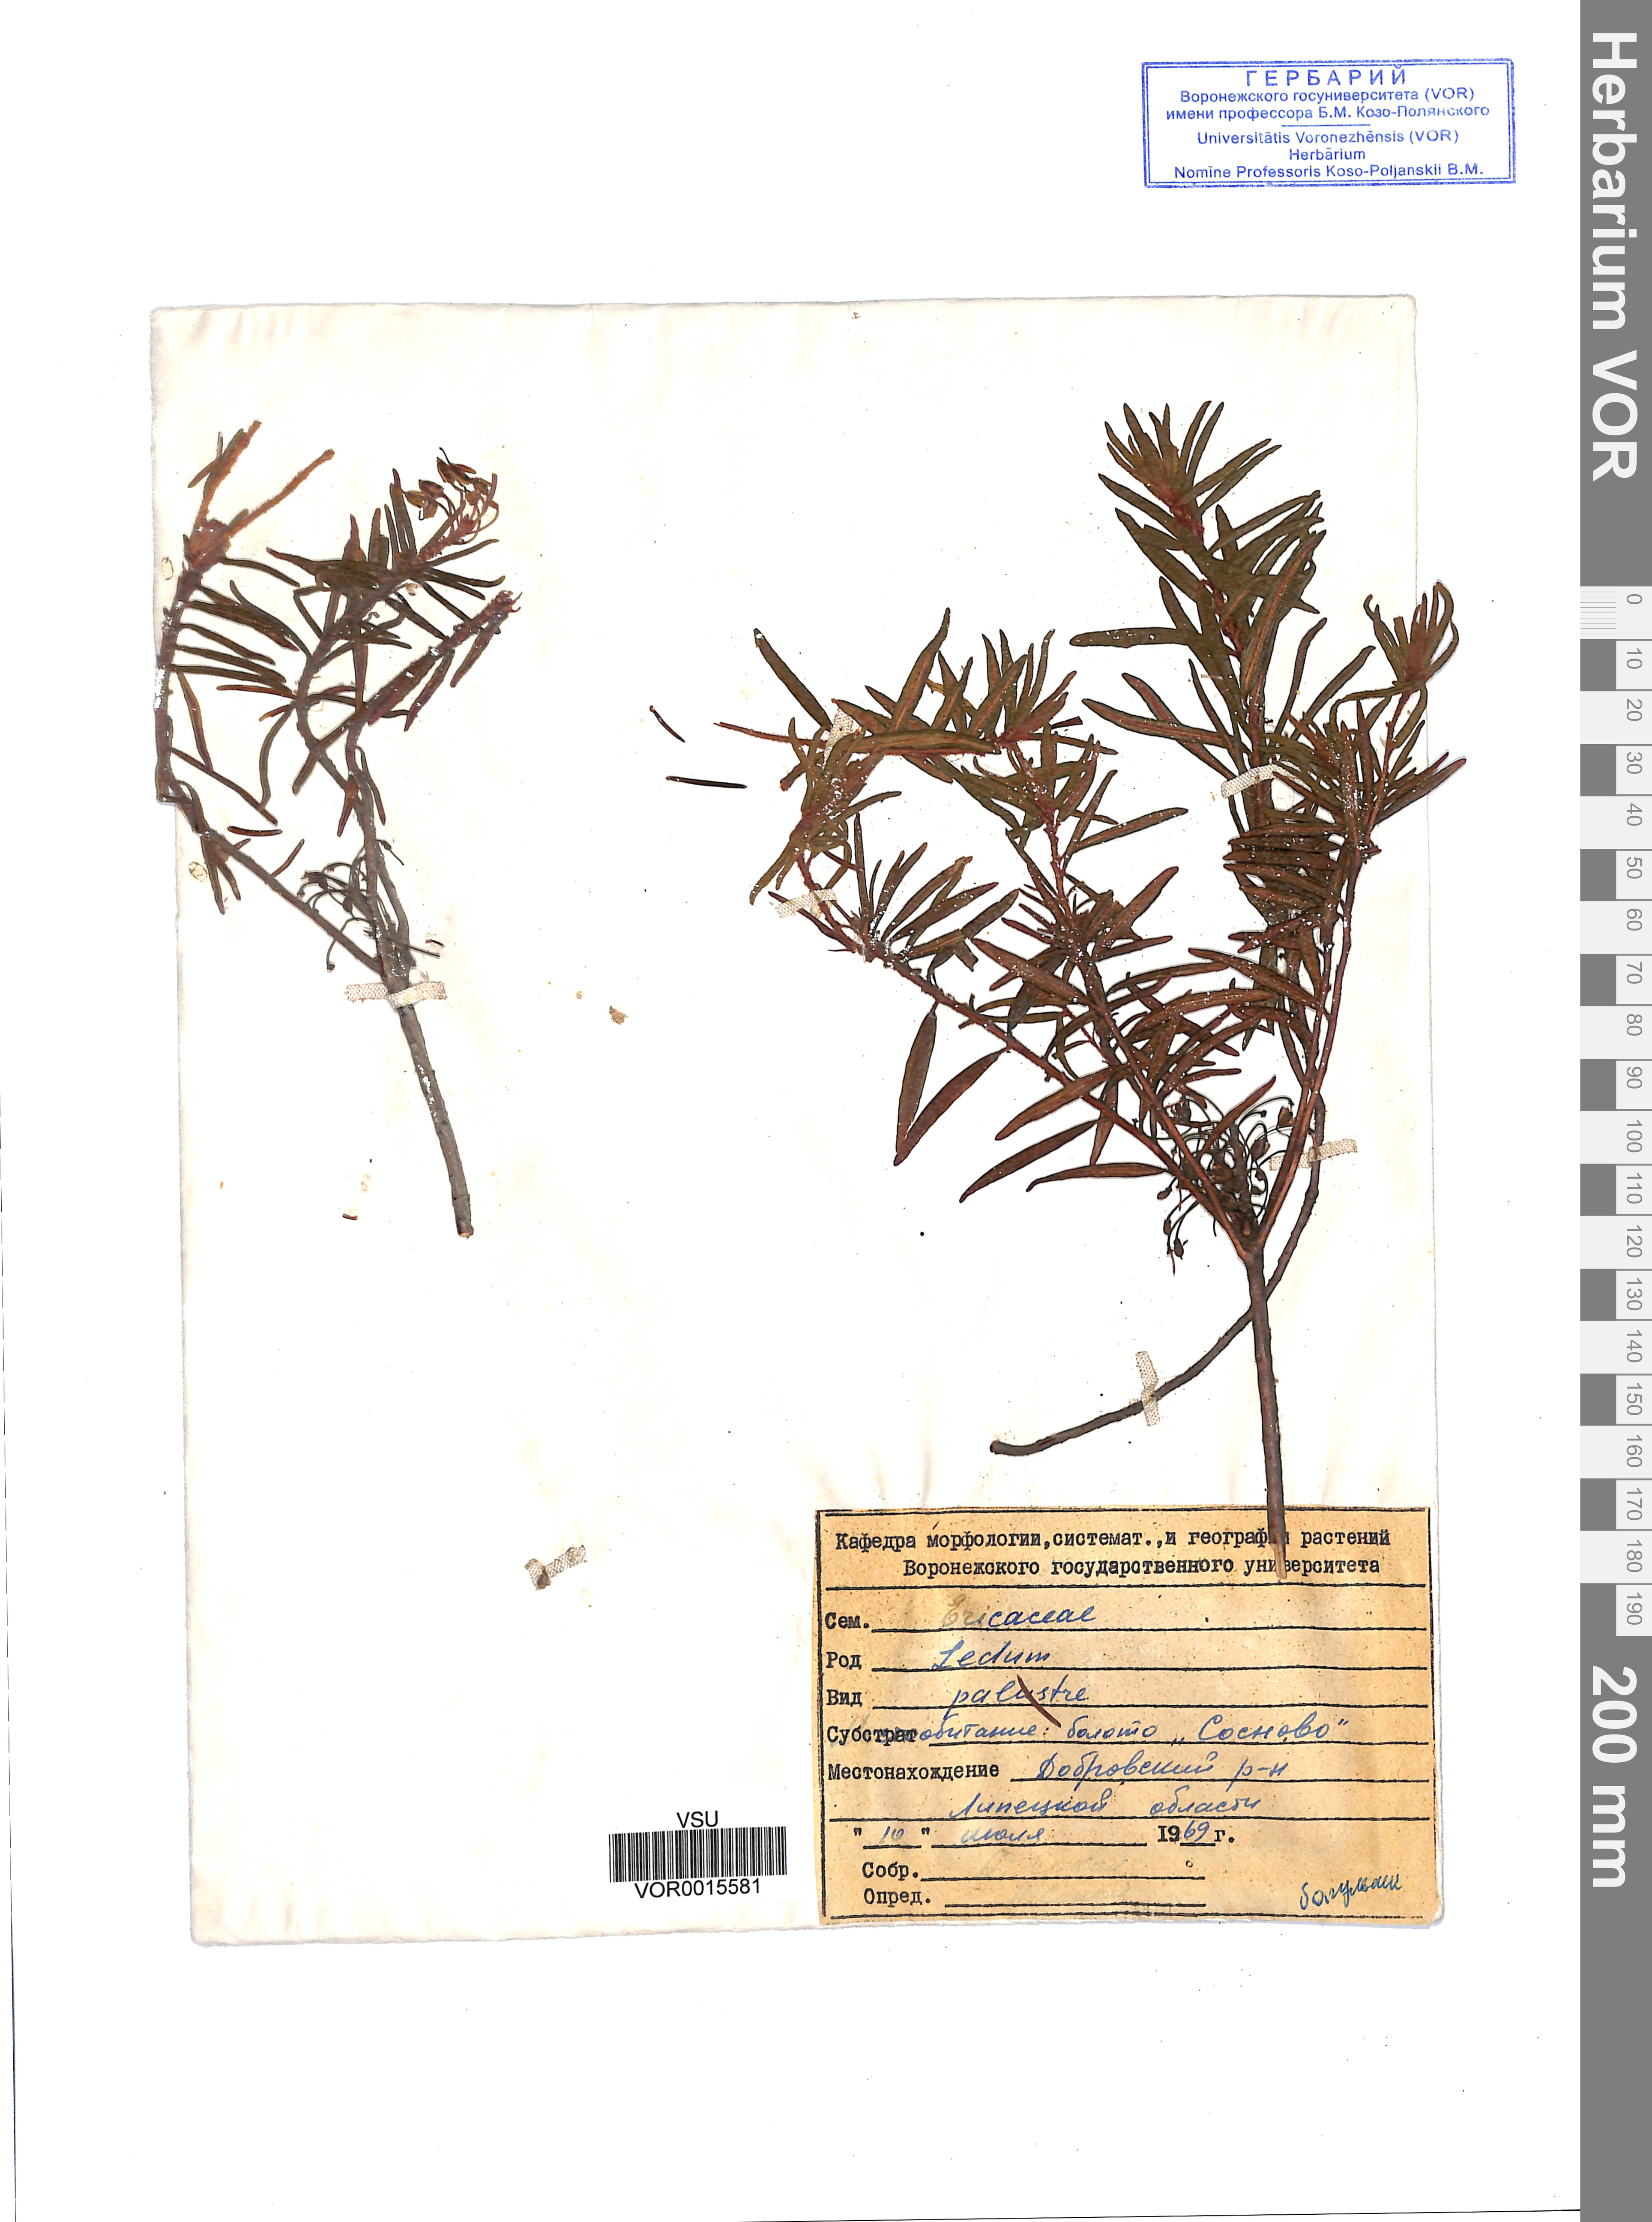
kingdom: Plantae
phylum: Tracheophyta
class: Magnoliopsida
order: Ericales
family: Ericaceae
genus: Rhododendron
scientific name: Rhododendron tomentosum
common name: Marsh labrador tea
